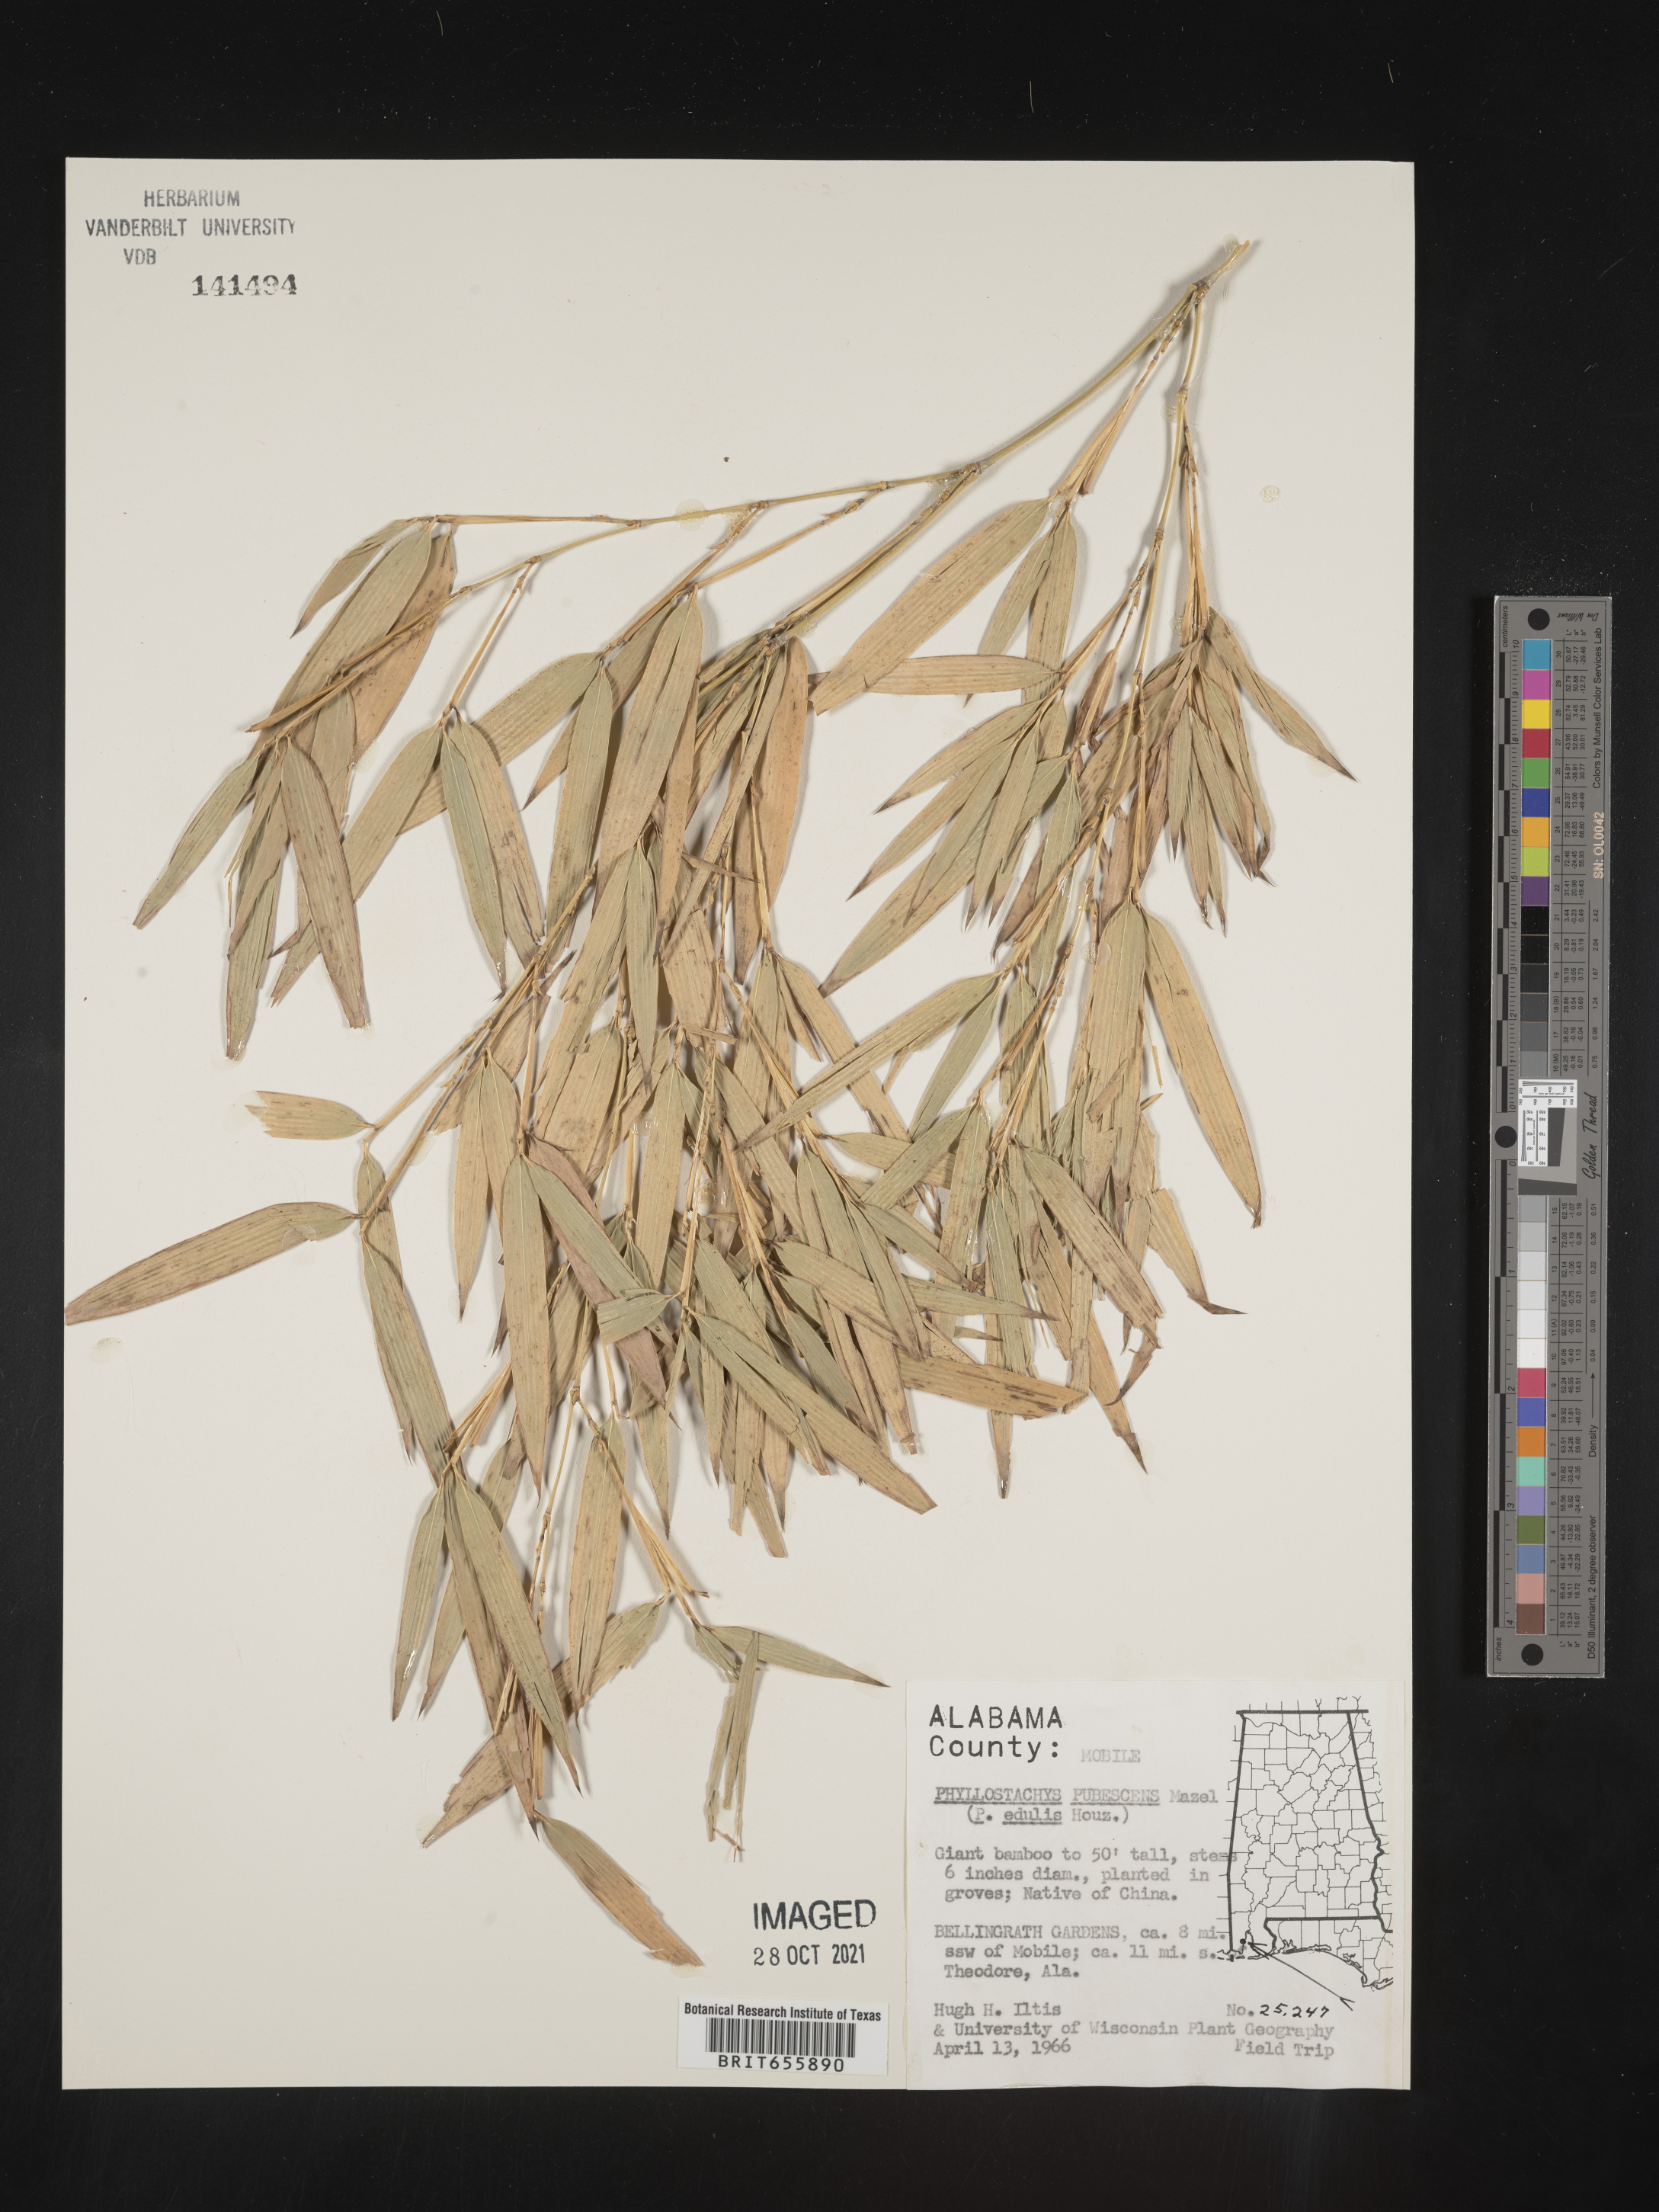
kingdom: Plantae
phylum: Tracheophyta
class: Liliopsida
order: Poales
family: Poaceae
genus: Phyllostachys
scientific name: Phyllostachys
